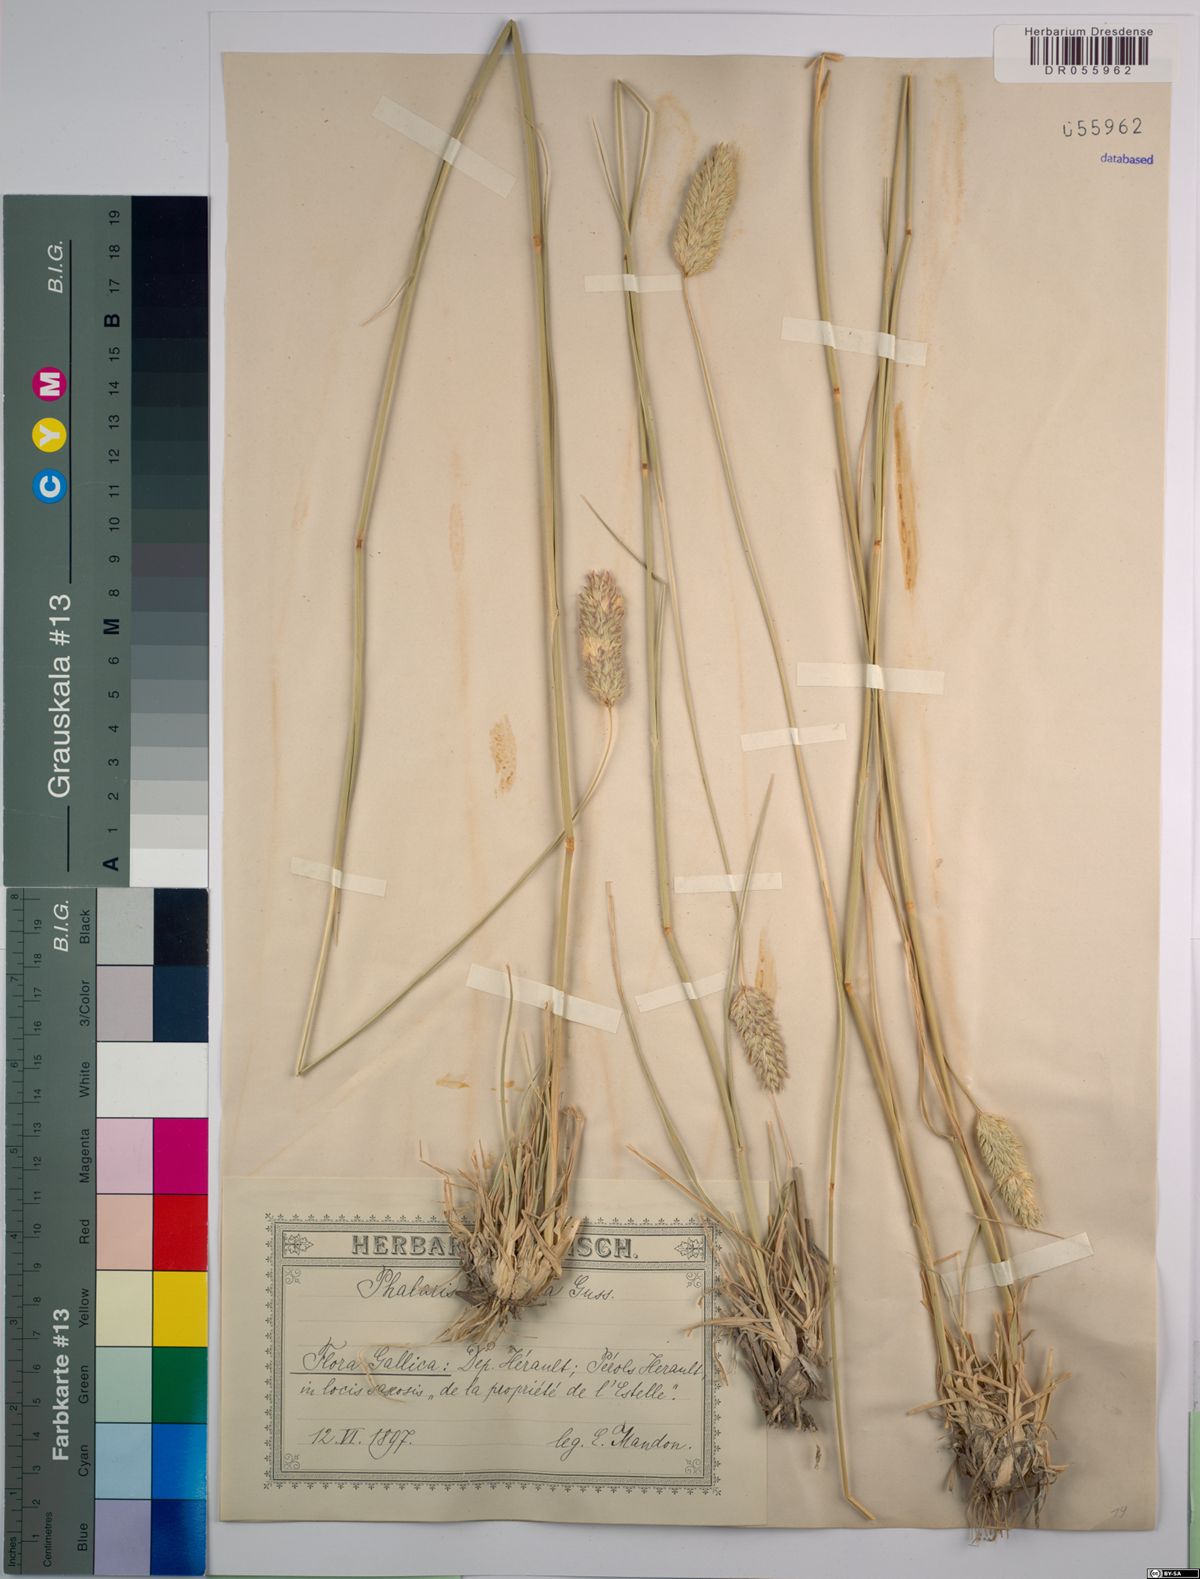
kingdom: Plantae
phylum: Tracheophyta
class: Liliopsida
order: Poales
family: Poaceae
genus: Phalaris
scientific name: Phalaris truncata
